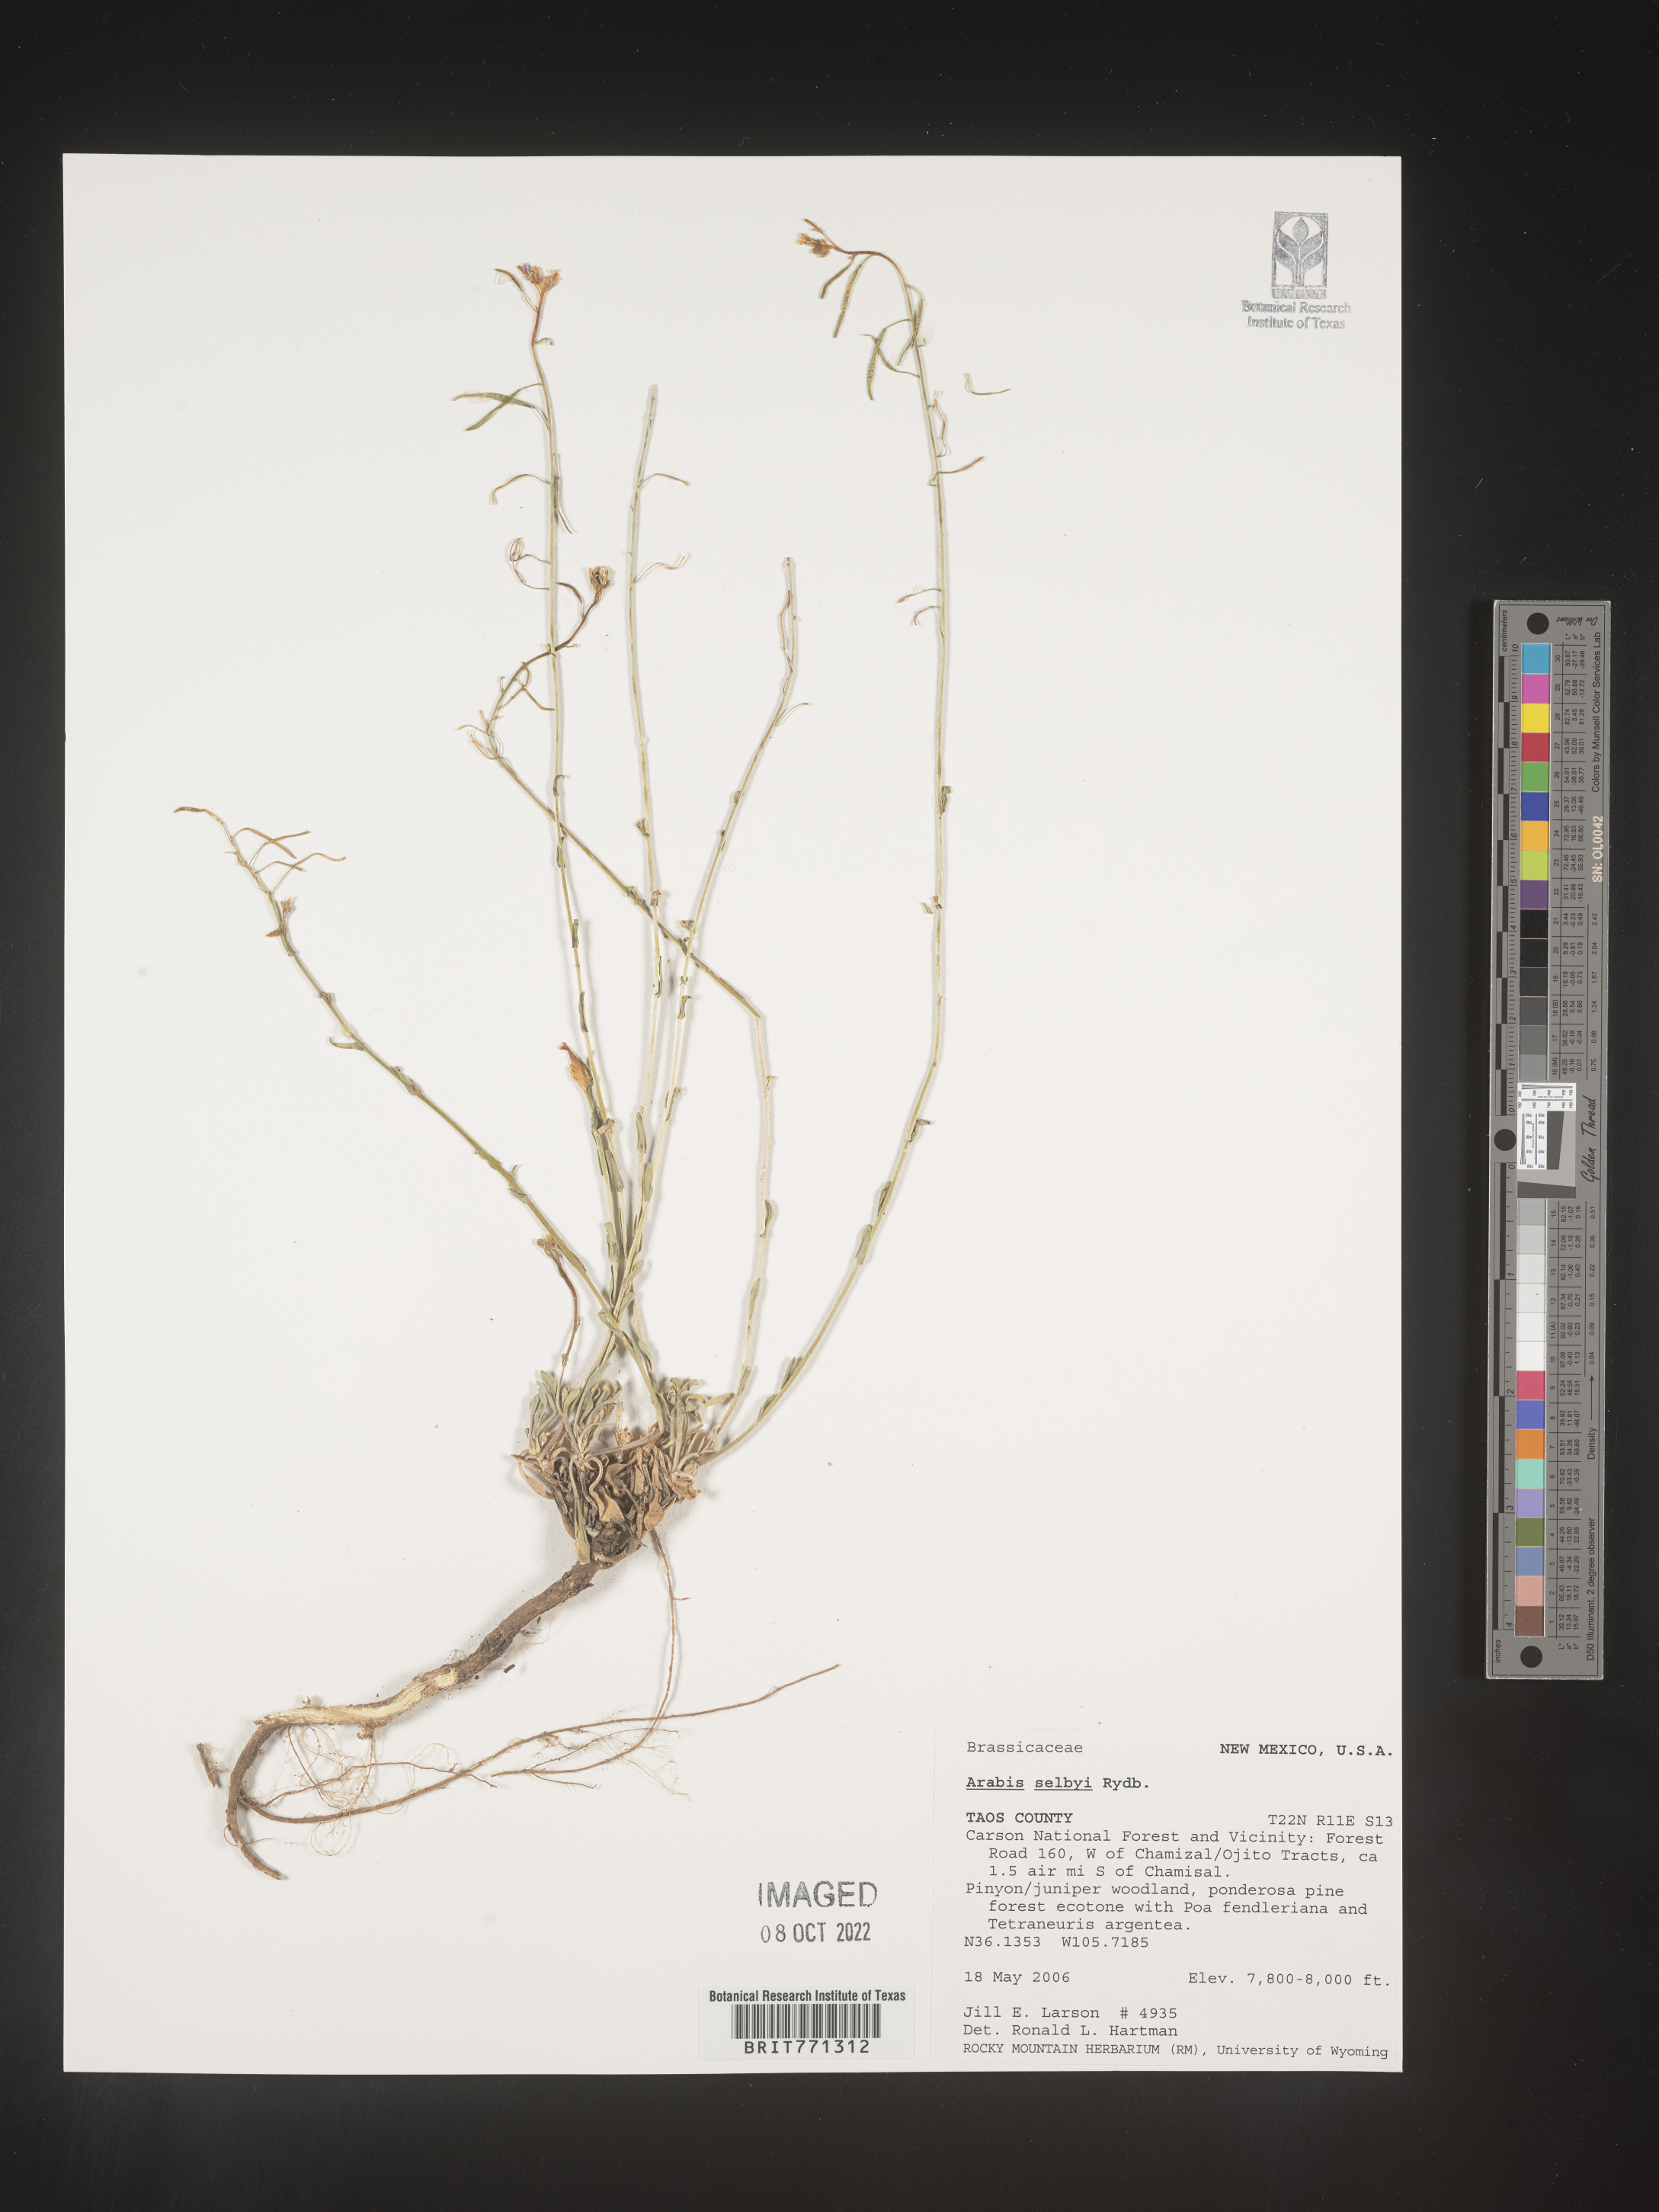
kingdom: Plantae
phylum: Tracheophyta
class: Magnoliopsida
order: Brassicales
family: Brassicaceae
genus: Arabis
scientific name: Arabis
